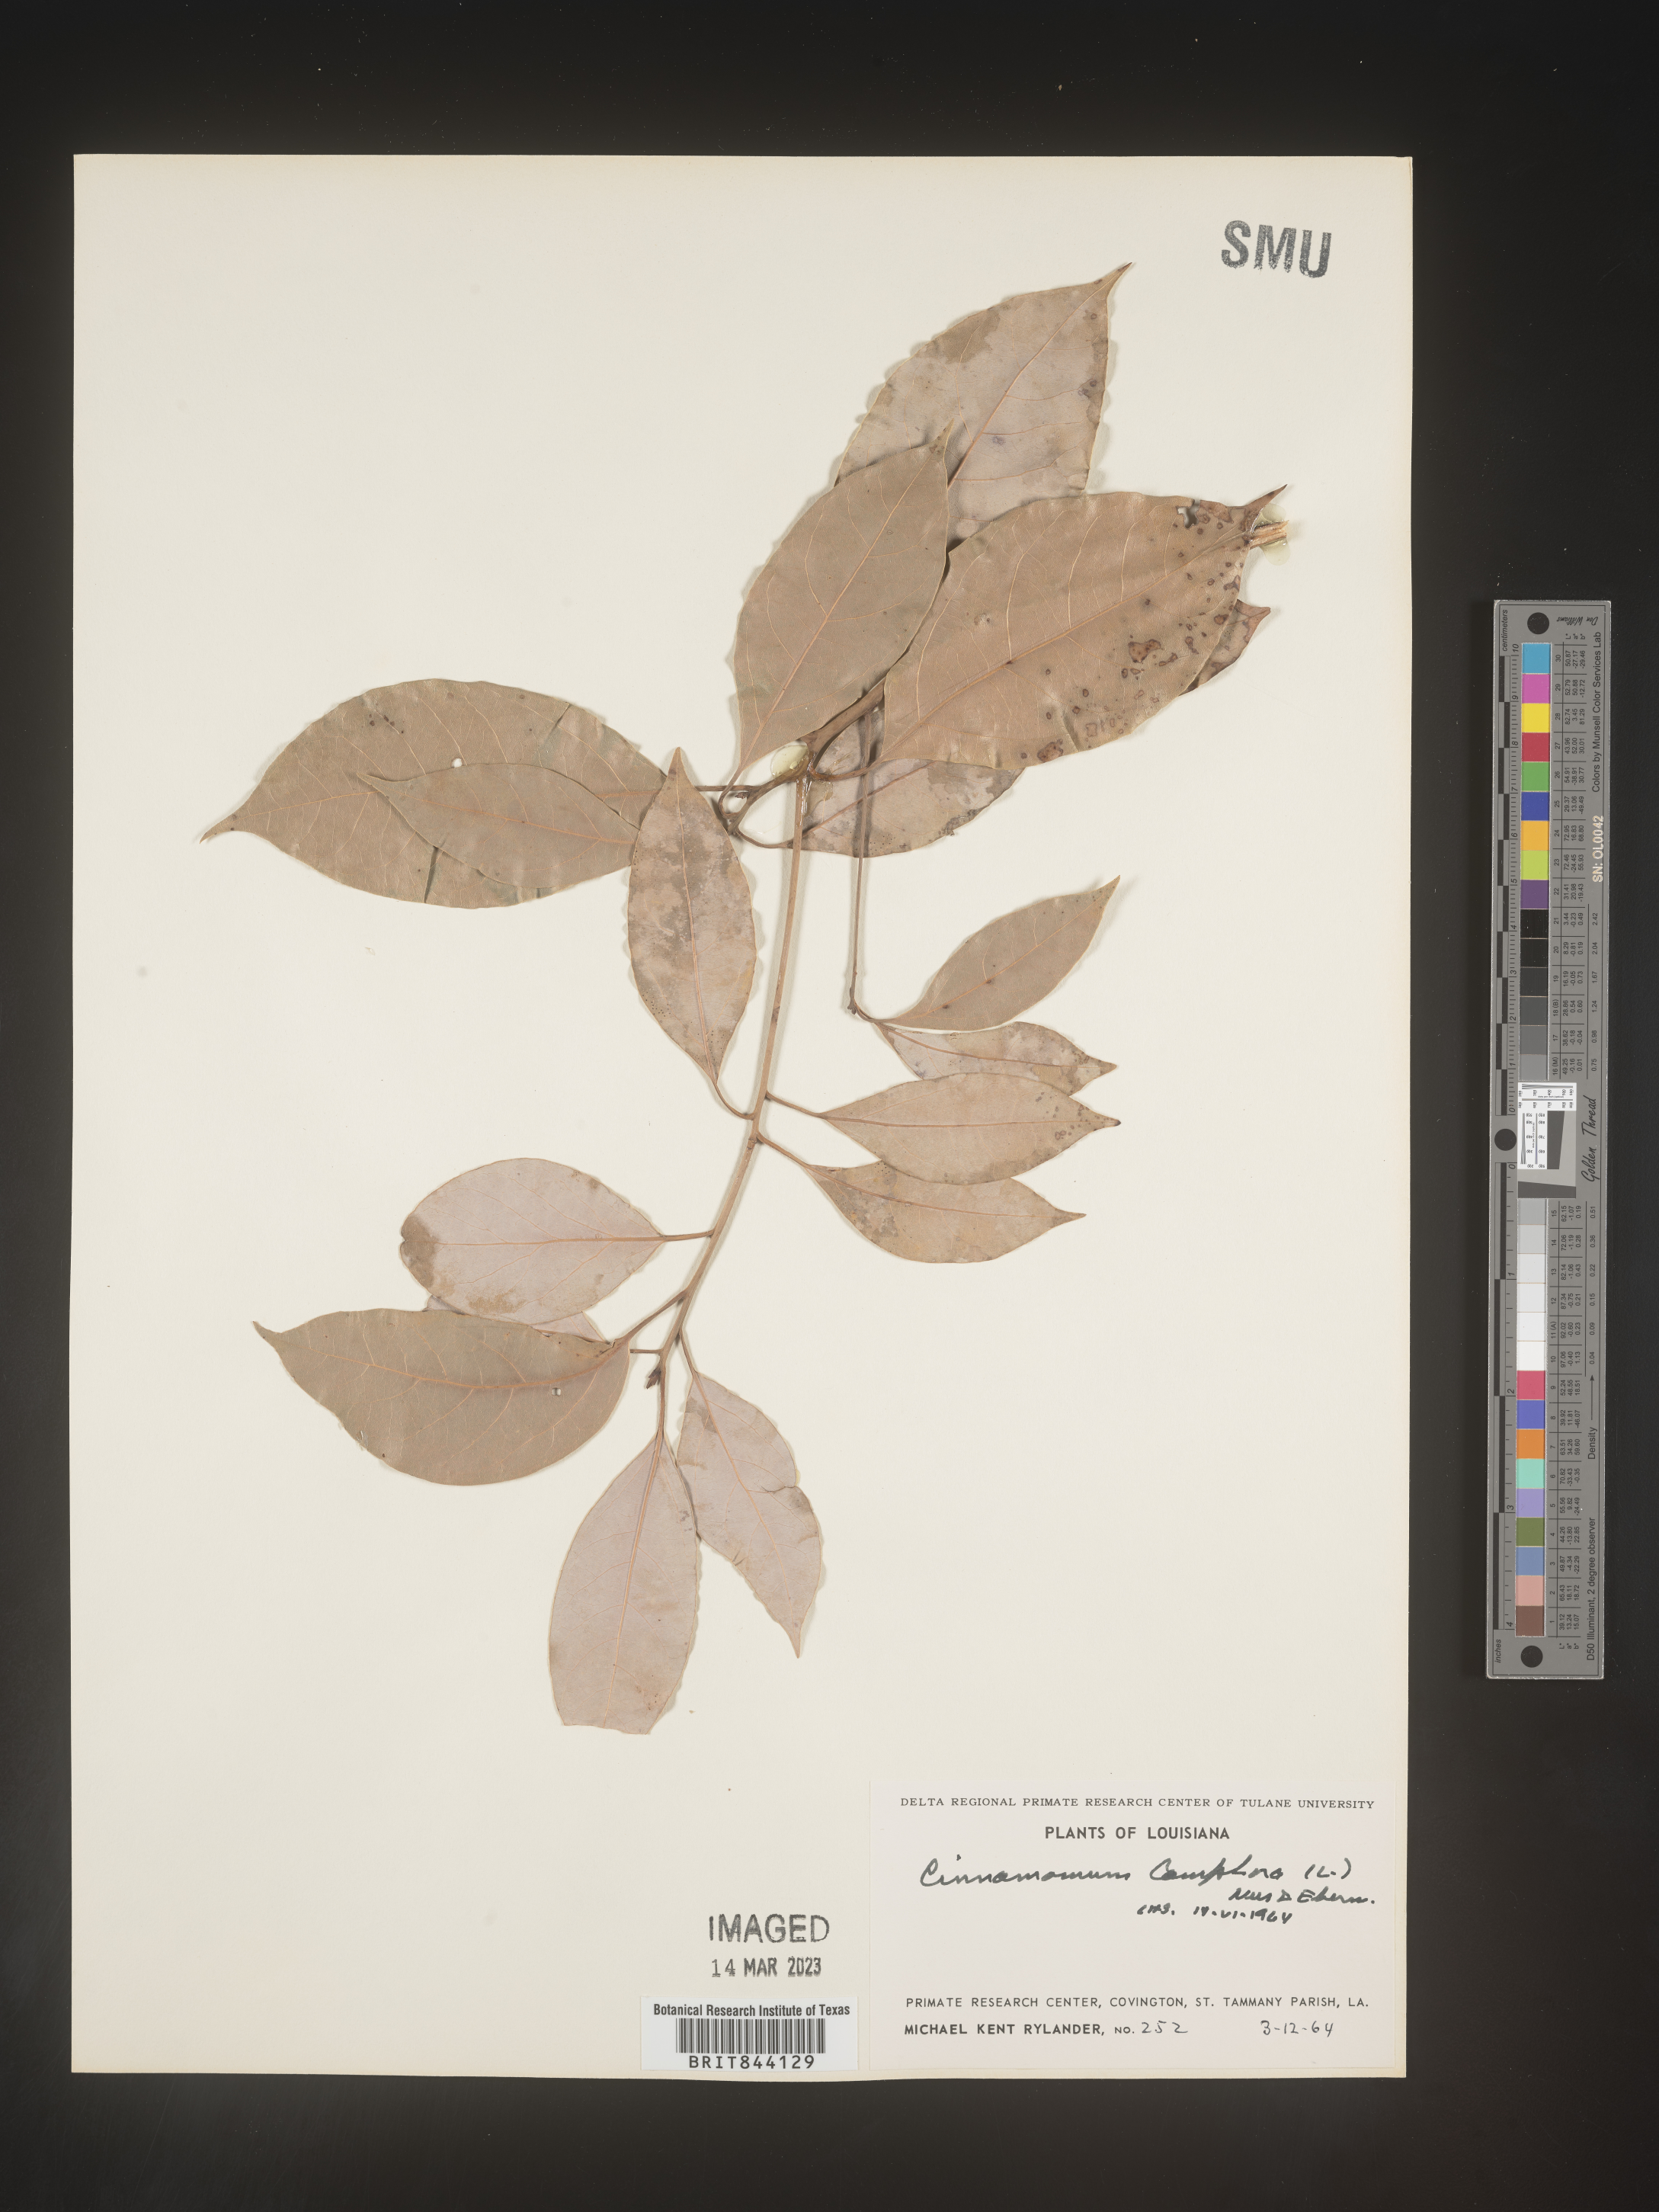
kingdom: Plantae
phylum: Tracheophyta
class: Magnoliopsida
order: Laurales
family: Lauraceae
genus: Cinnamomum
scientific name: Cinnamomum
